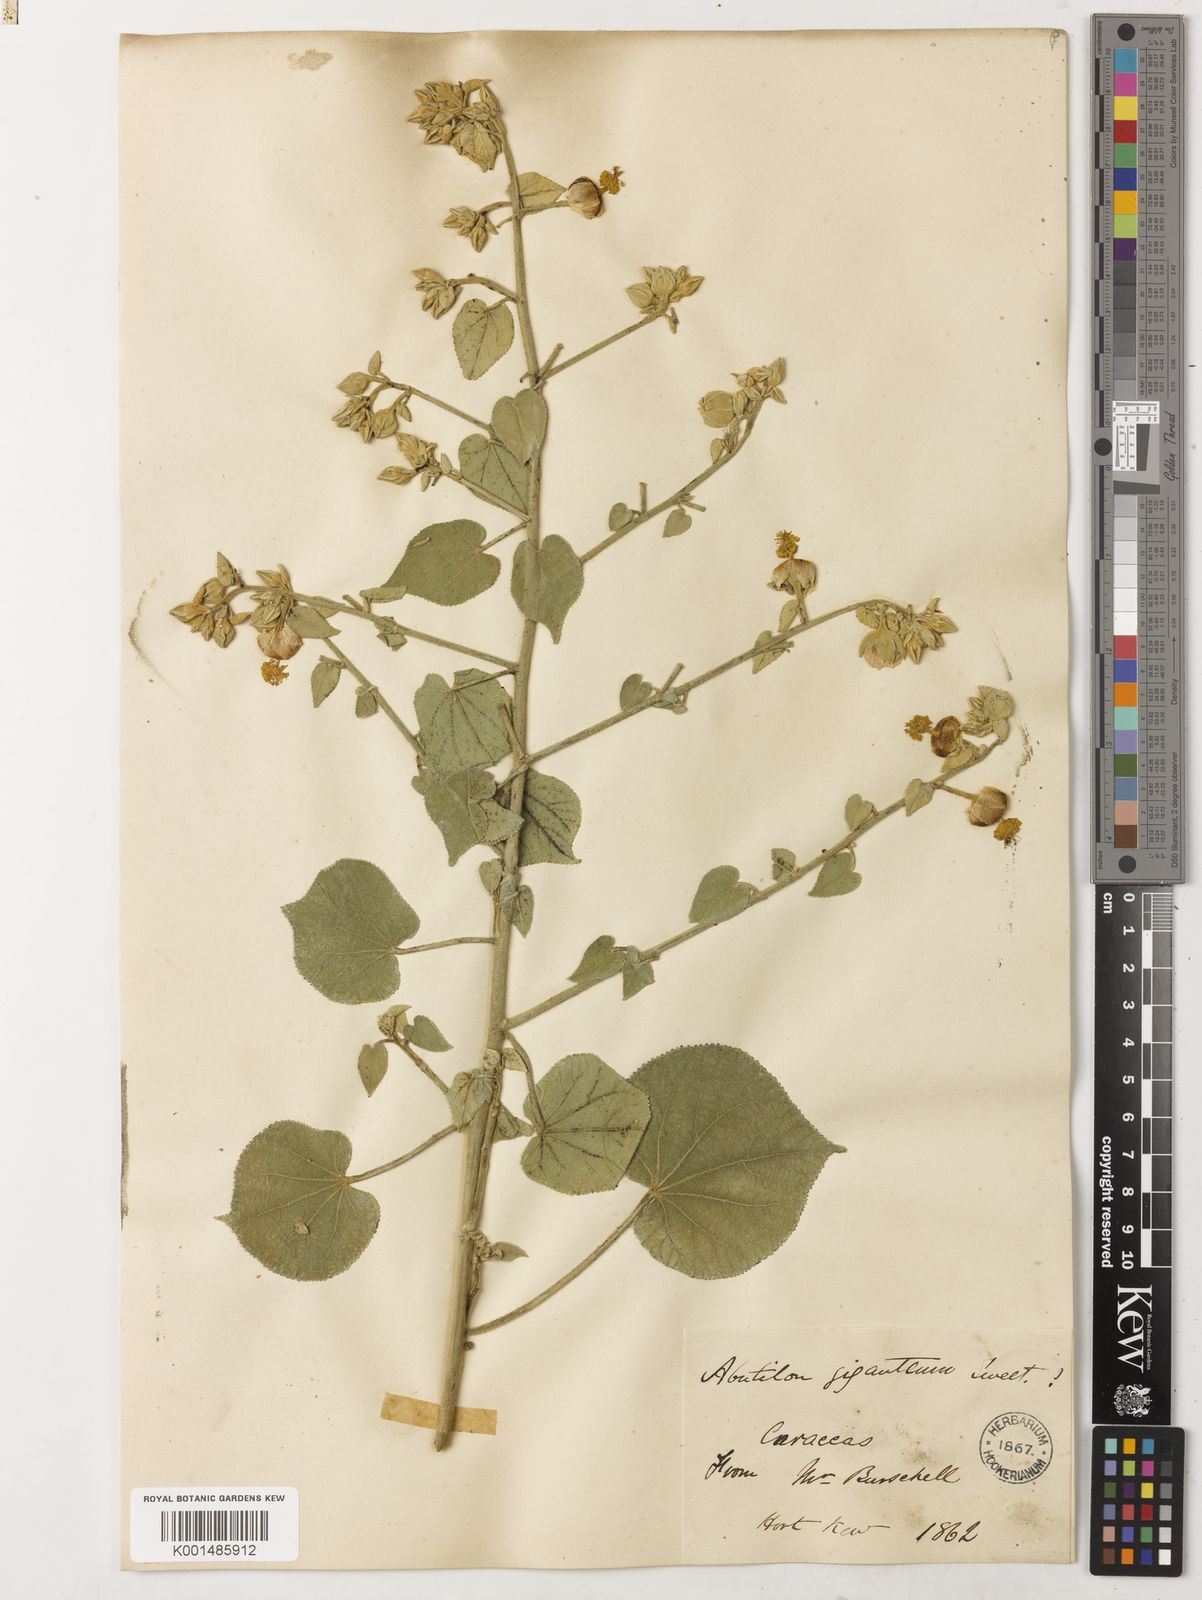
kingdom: Plantae
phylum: Tracheophyta
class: Magnoliopsida
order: Malvales
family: Malvaceae
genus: Abutilon
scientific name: Abutilon giganteum
